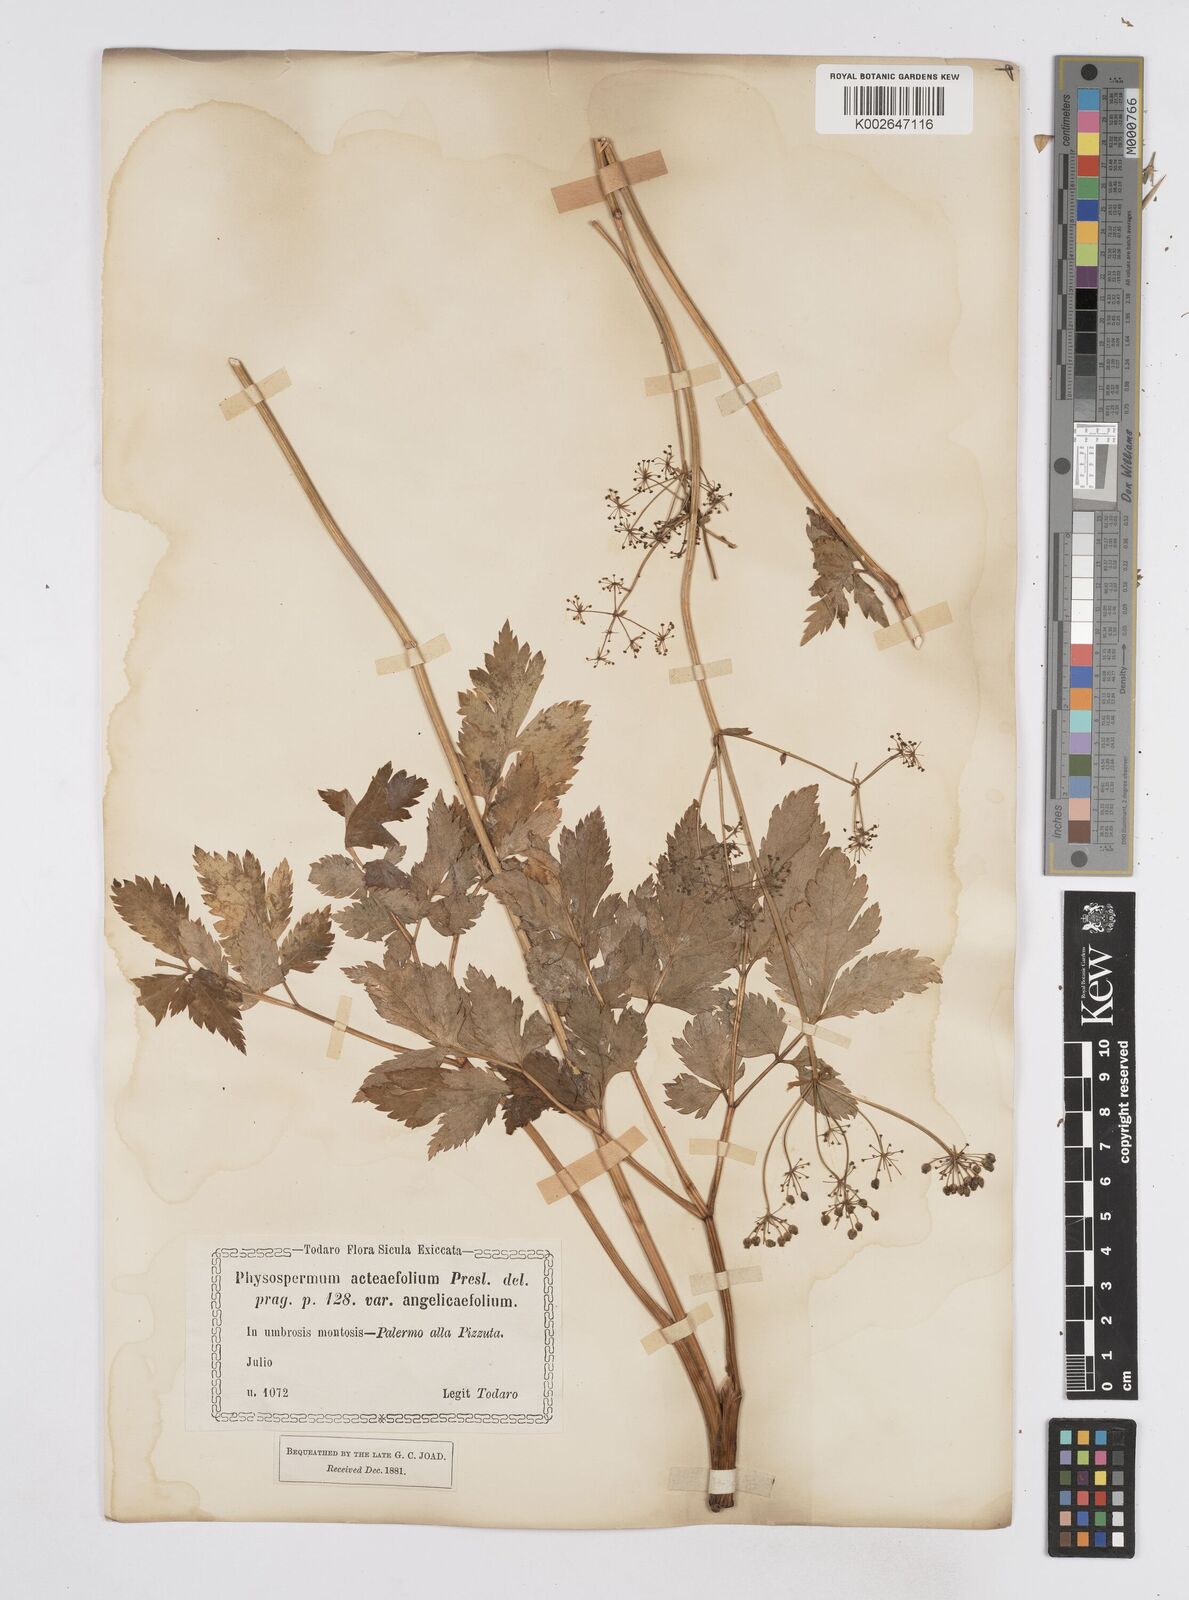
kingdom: Plantae
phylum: Tracheophyta
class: Magnoliopsida
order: Apiales
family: Apiaceae
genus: Physospermum
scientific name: Physospermum verticillatum
